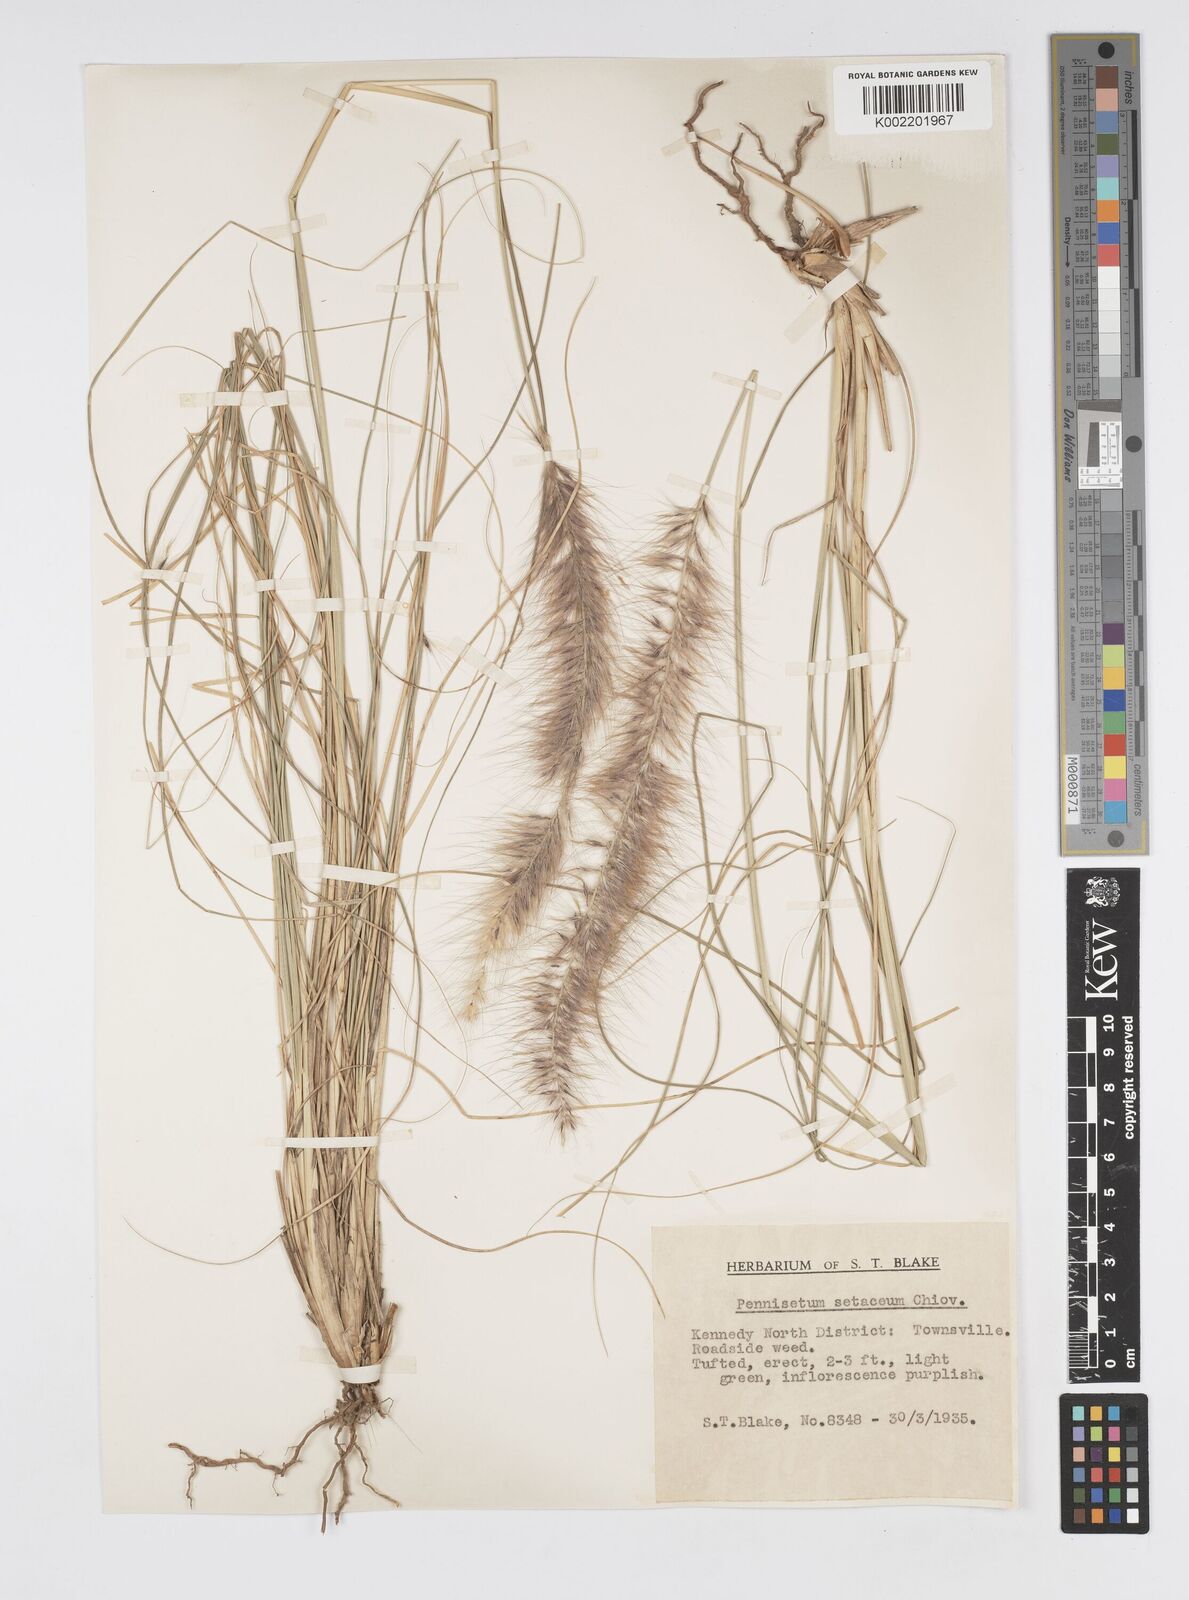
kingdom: Plantae
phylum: Tracheophyta
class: Liliopsida
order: Poales
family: Poaceae
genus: Cenchrus
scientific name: Cenchrus setaceus
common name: Crimson fountaingrass
